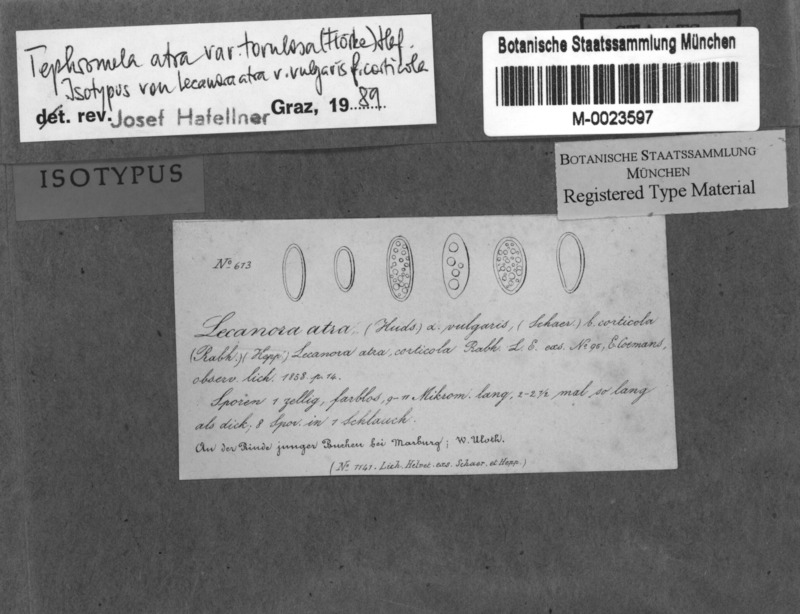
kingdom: Fungi
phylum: Ascomycota
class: Lecanoromycetes
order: Lecanorales
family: Tephromelataceae
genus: Tephromela
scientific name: Tephromela atra
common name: Black shields
